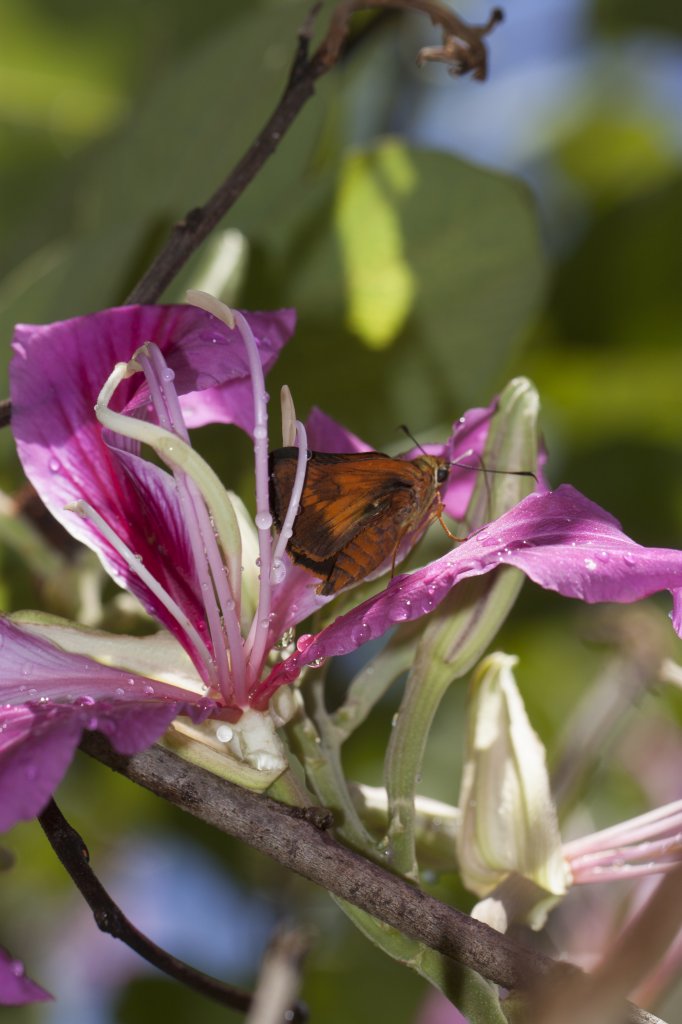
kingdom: Animalia
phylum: Arthropoda
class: Insecta
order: Lepidoptera
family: Hesperiidae
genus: Pyrrhocalles
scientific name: Pyrrhocalles antiqua
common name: Caribbean Skipper
